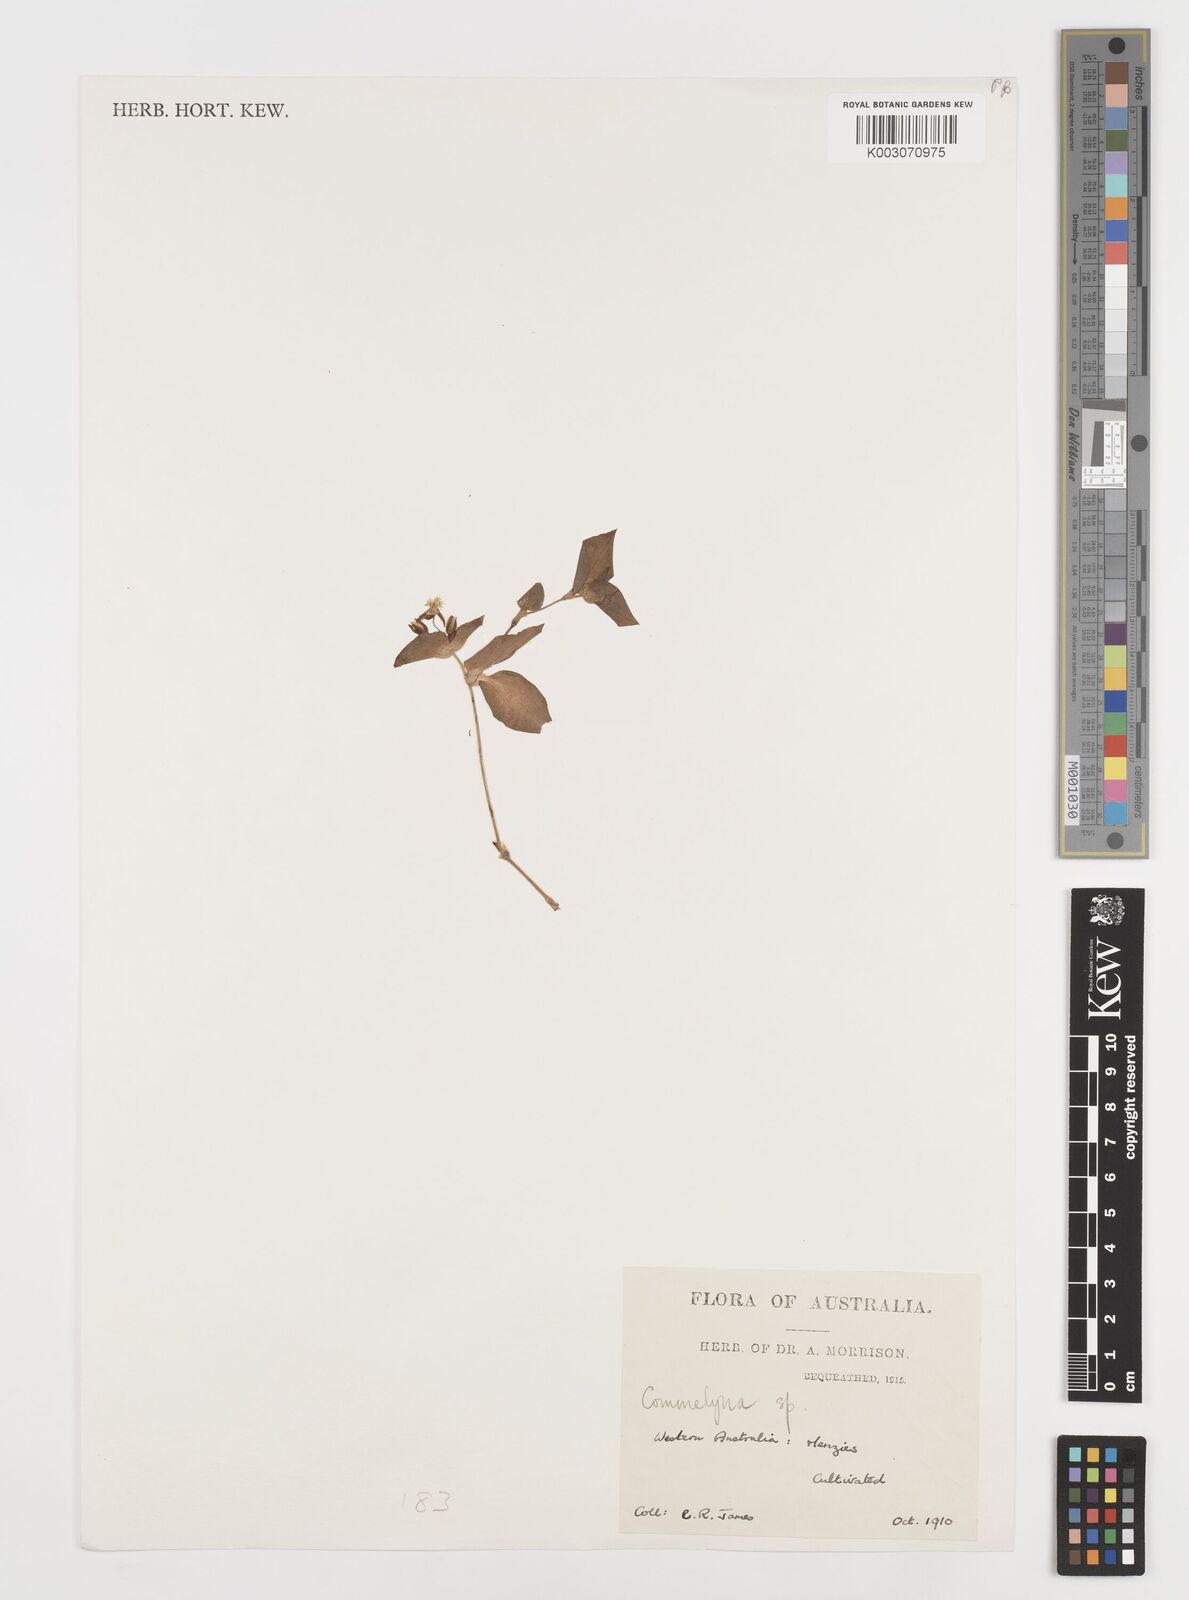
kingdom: Plantae
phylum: Tracheophyta
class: Liliopsida
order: Commelinales
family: Commelinaceae
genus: Commelina
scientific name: Commelina
